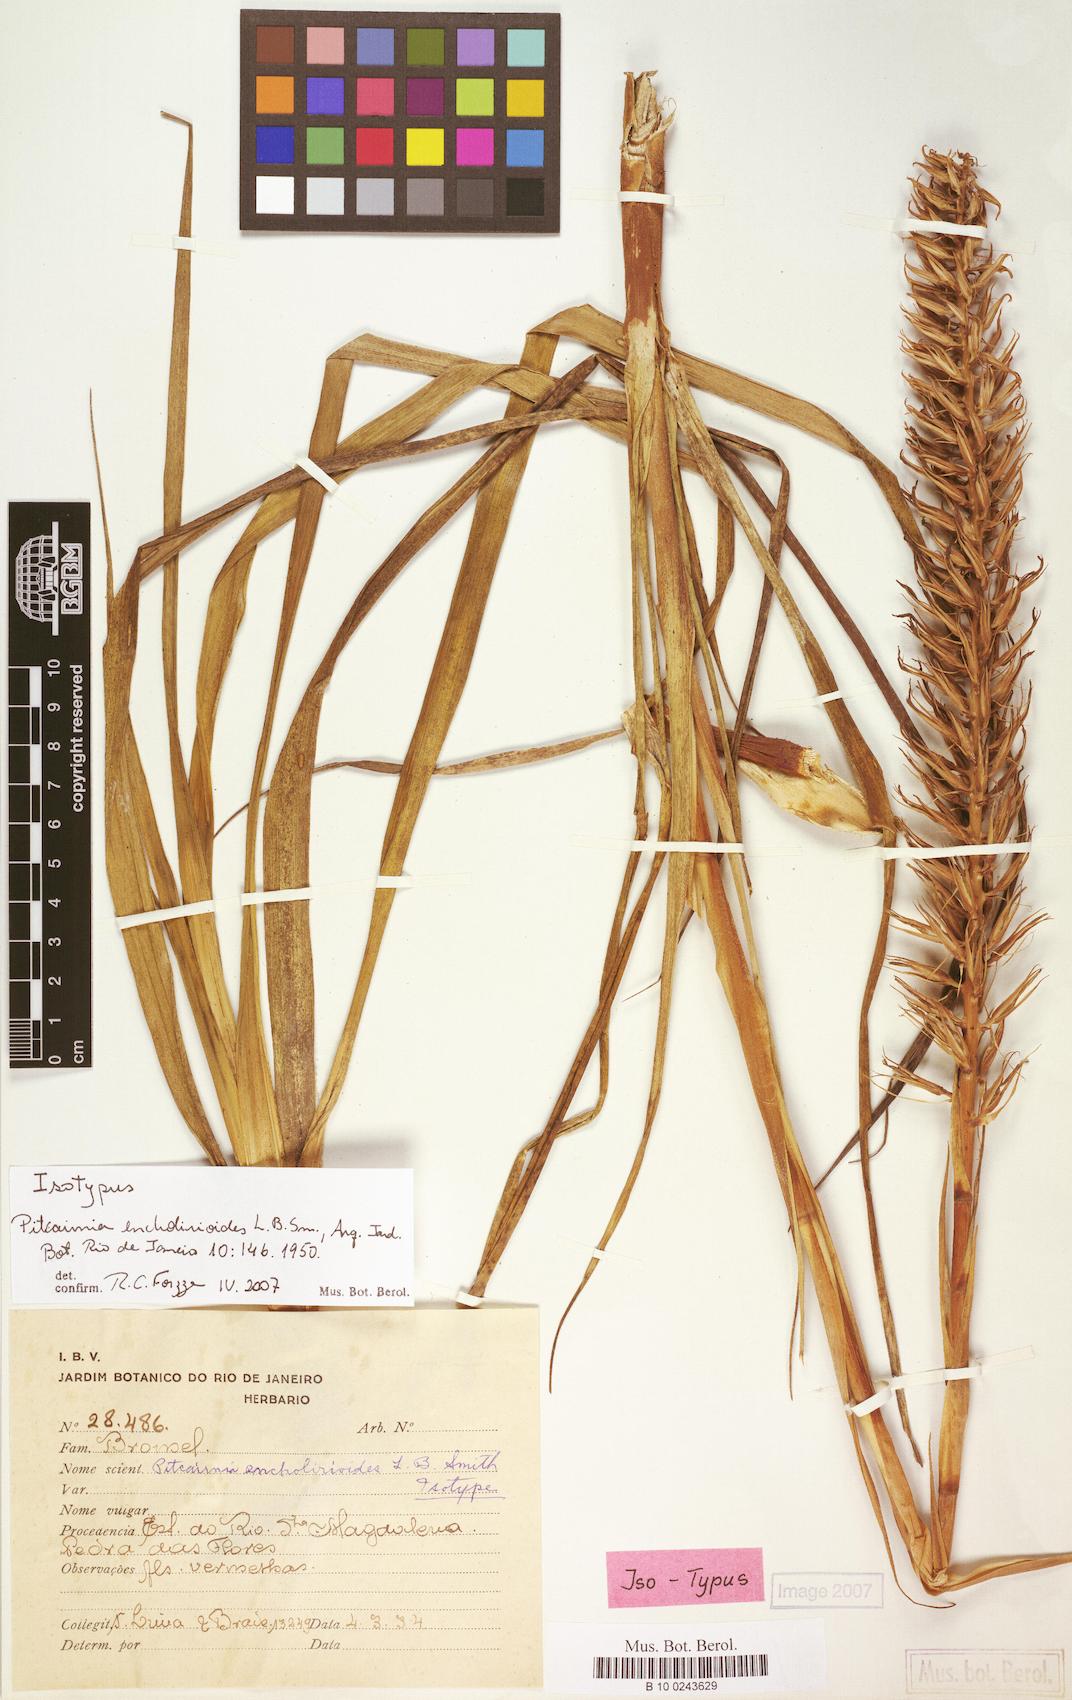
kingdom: Plantae
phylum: Tracheophyta
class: Liliopsida
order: Poales
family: Bromeliaceae
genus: Pitcairnia
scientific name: Pitcairnia encholirioides
